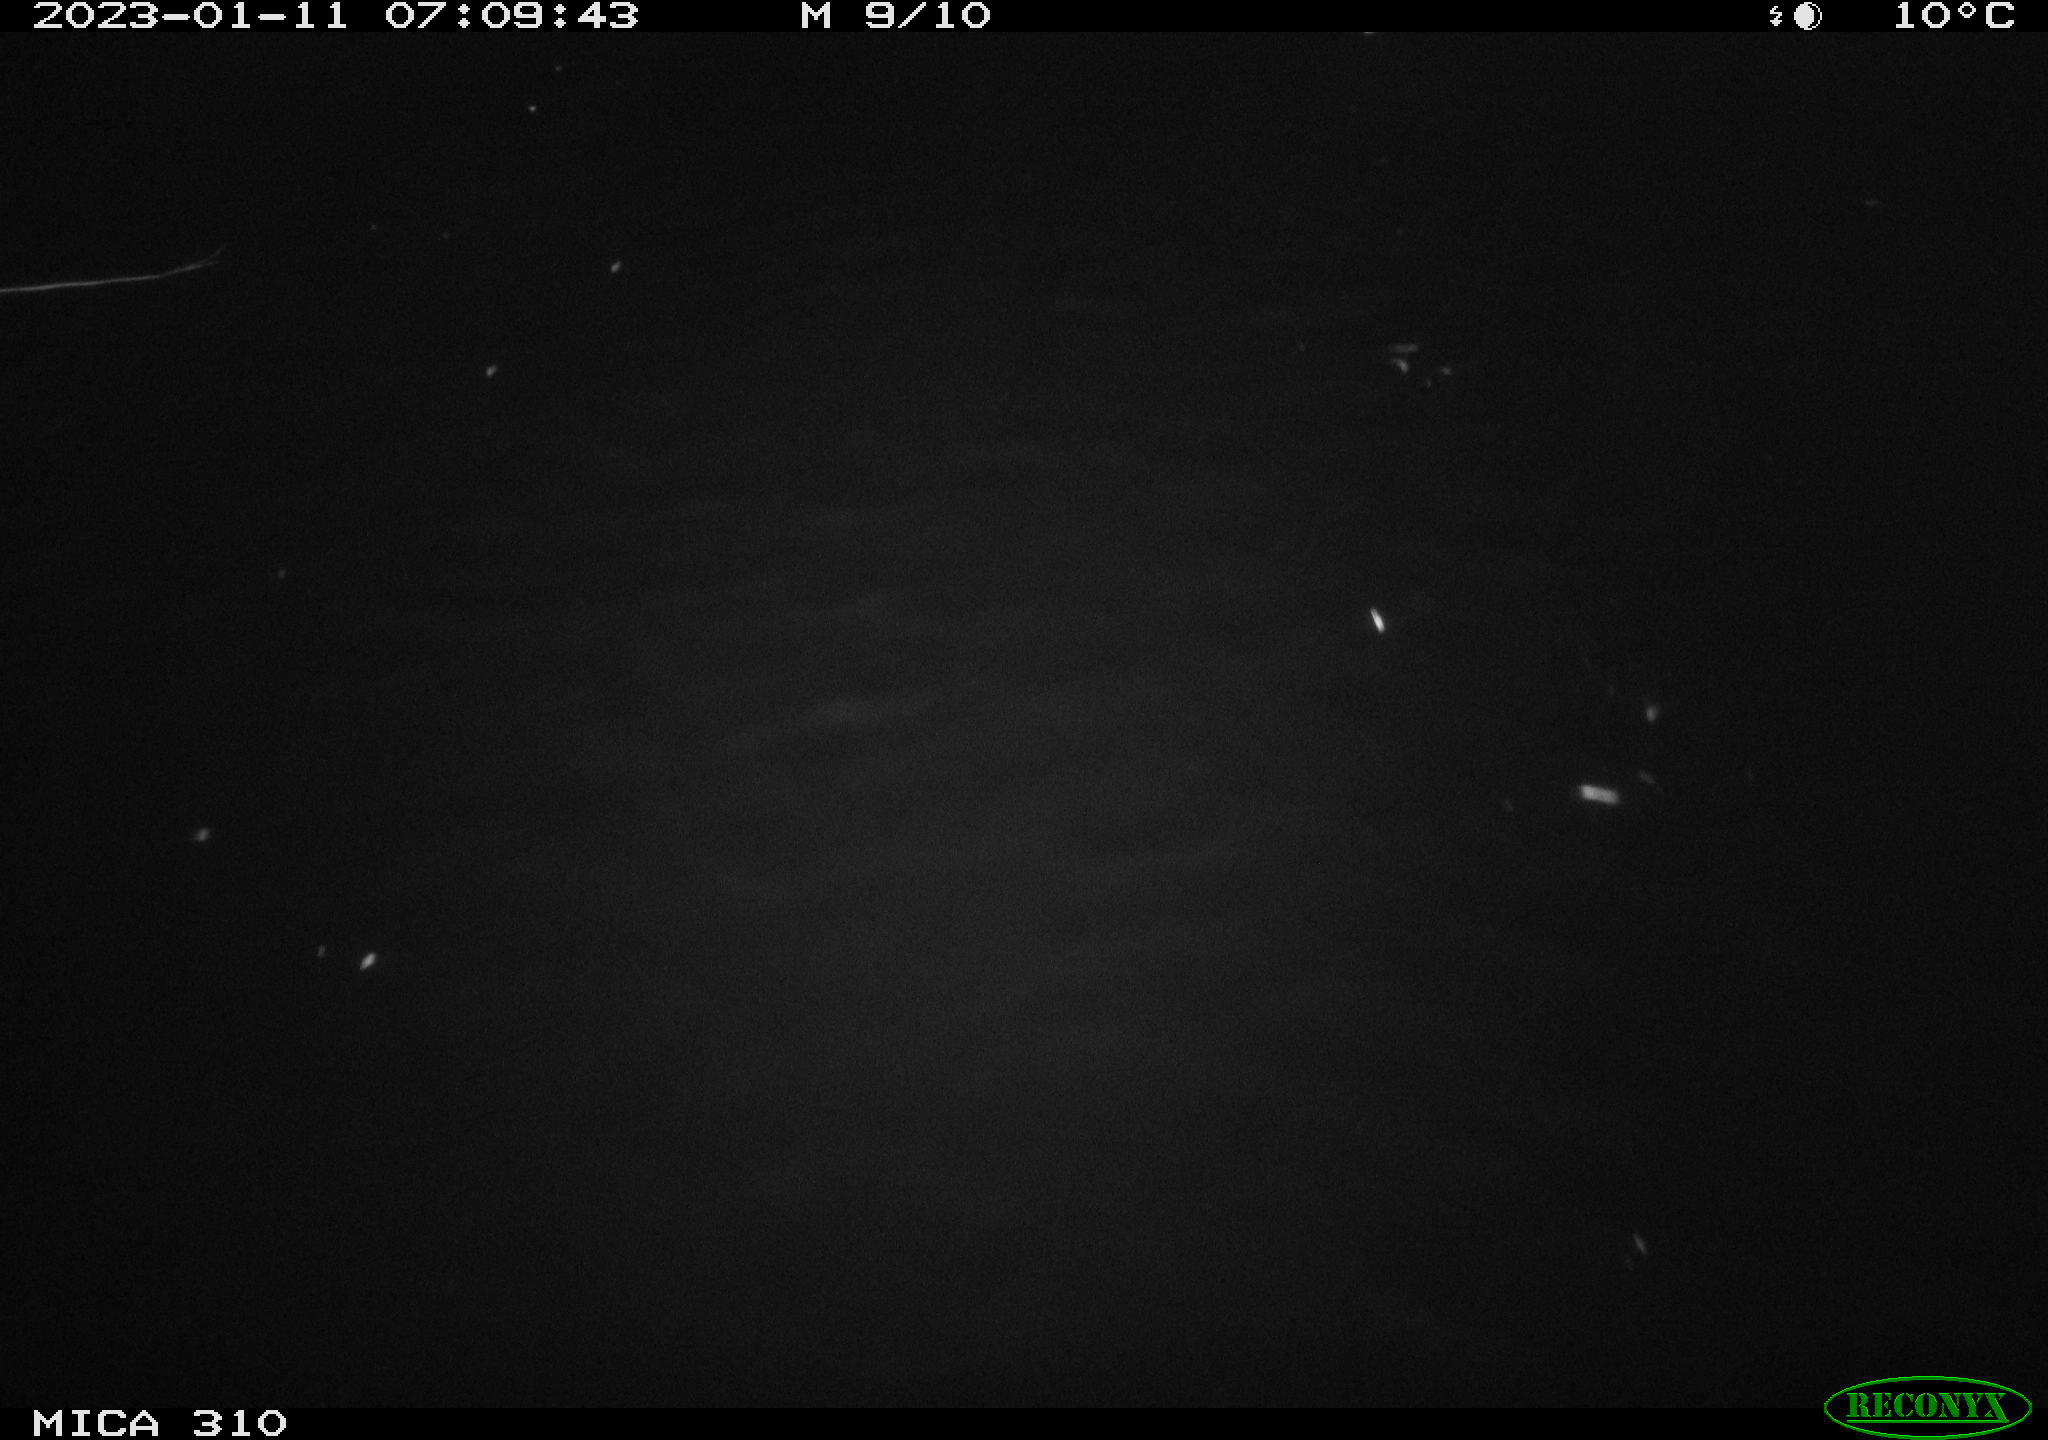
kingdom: Animalia
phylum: Chordata
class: Aves
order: Anseriformes
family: Anatidae
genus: Anas
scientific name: Anas
